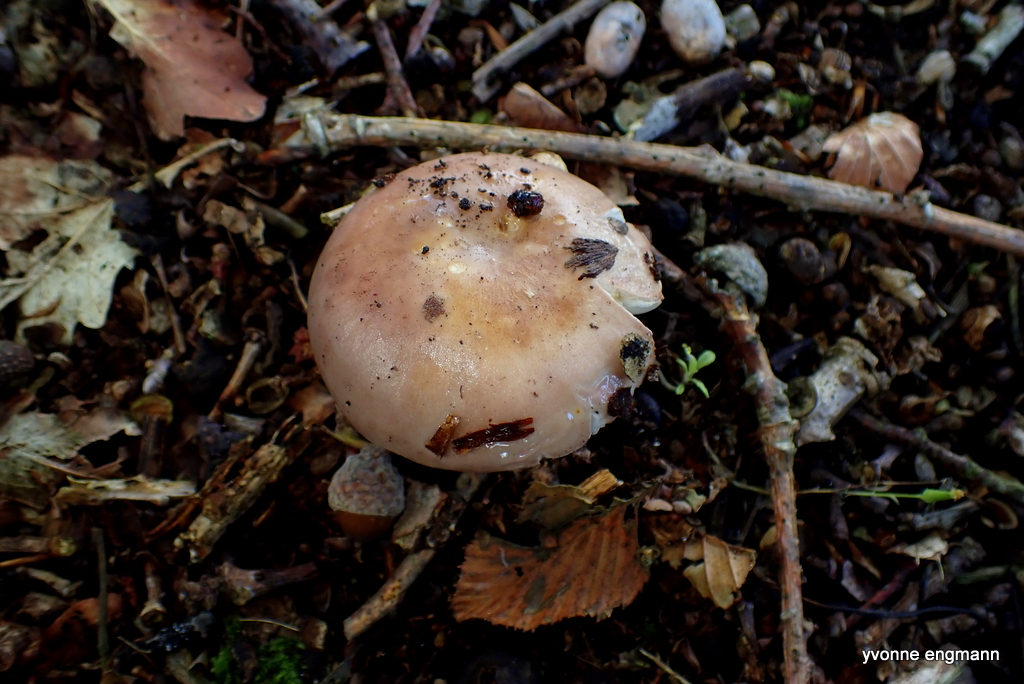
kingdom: Fungi
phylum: Basidiomycota
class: Agaricomycetes
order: Russulales
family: Russulaceae
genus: Russula
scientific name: Russula
